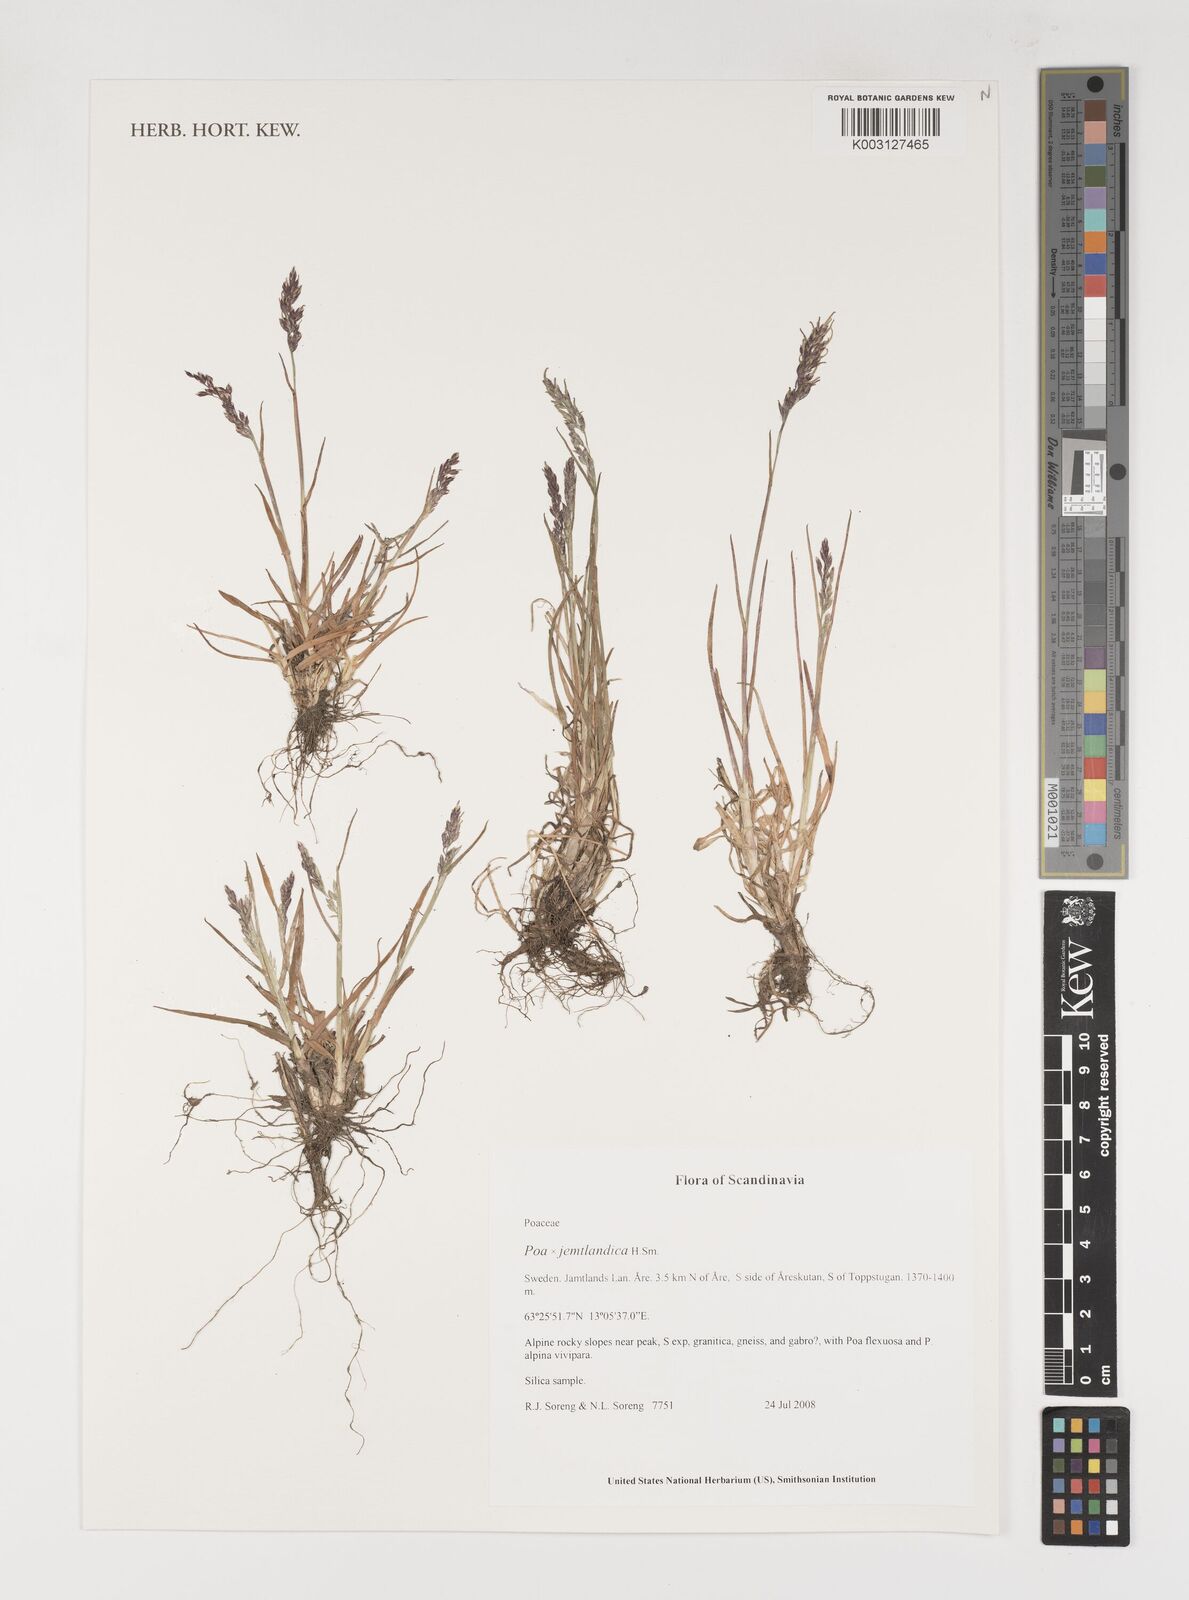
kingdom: Plantae
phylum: Tracheophyta
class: Liliopsida
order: Poales
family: Poaceae
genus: Poa
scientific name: Poa jemtlandica
